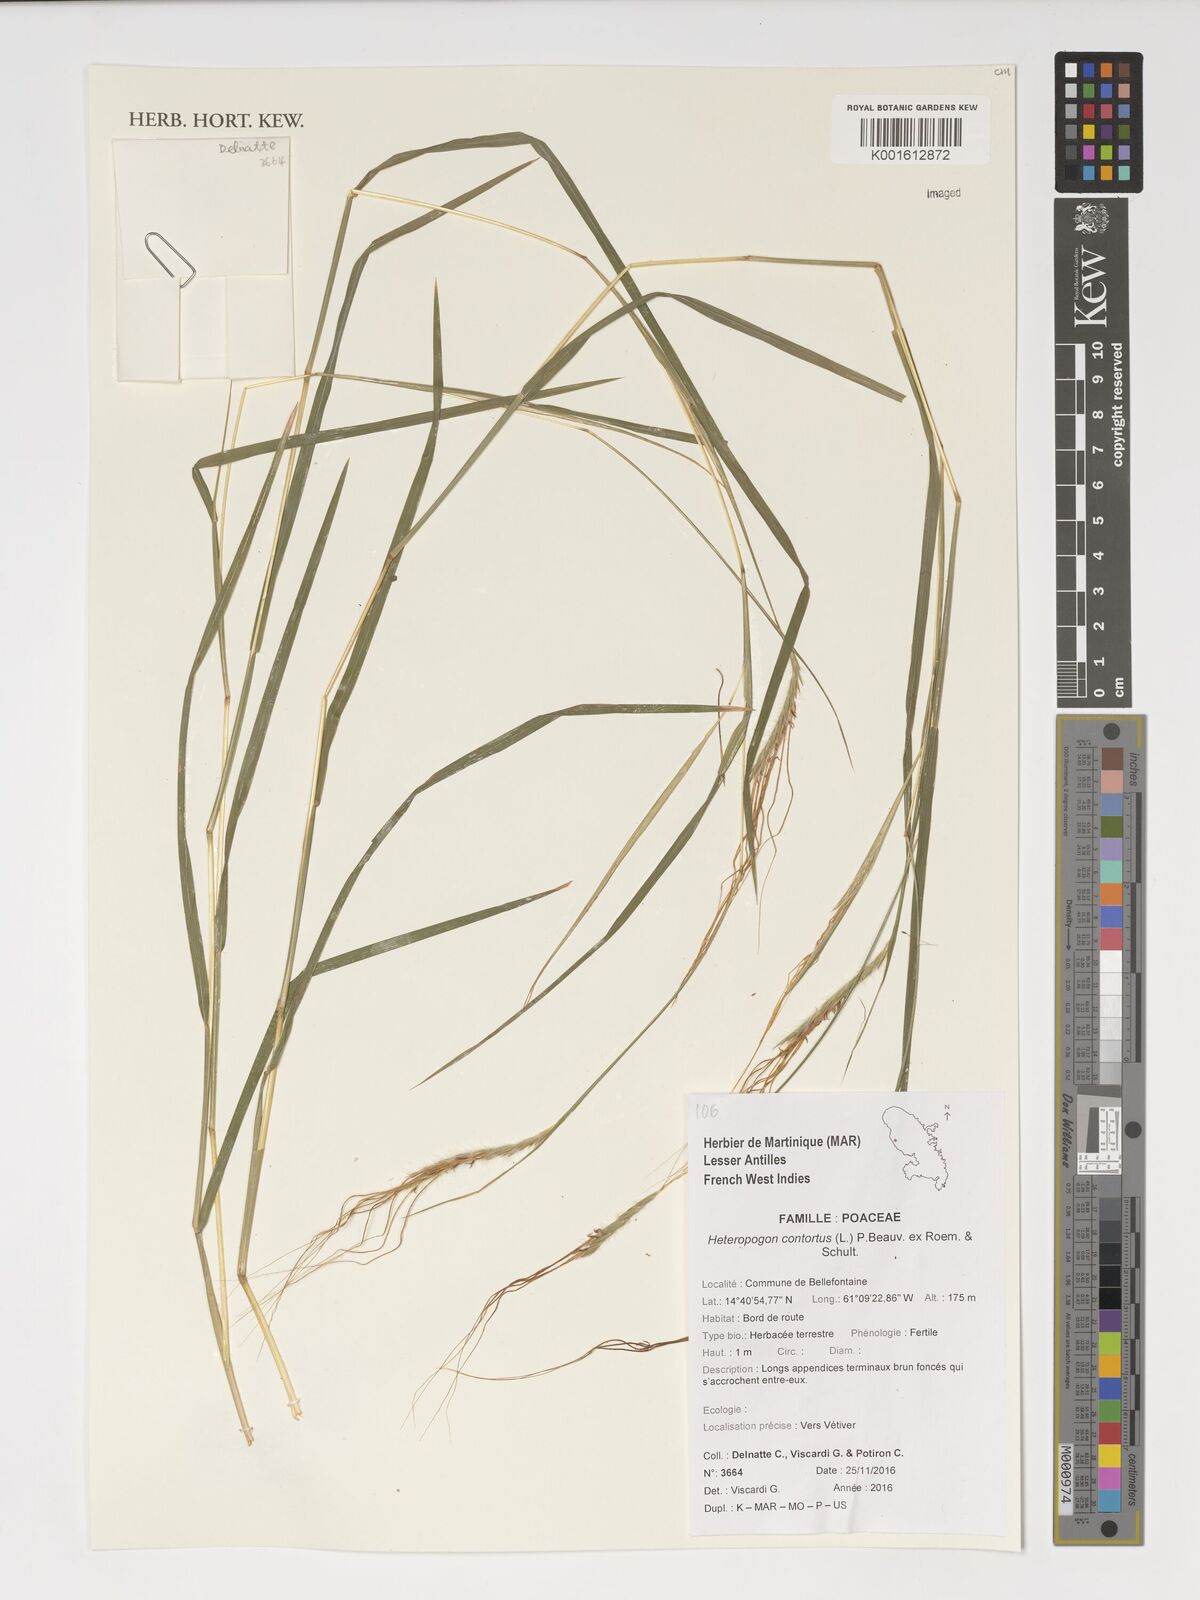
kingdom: Plantae
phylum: Tracheophyta
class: Liliopsida
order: Poales
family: Poaceae
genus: Heteropogon
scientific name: Heteropogon contortus
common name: Tanglehead
